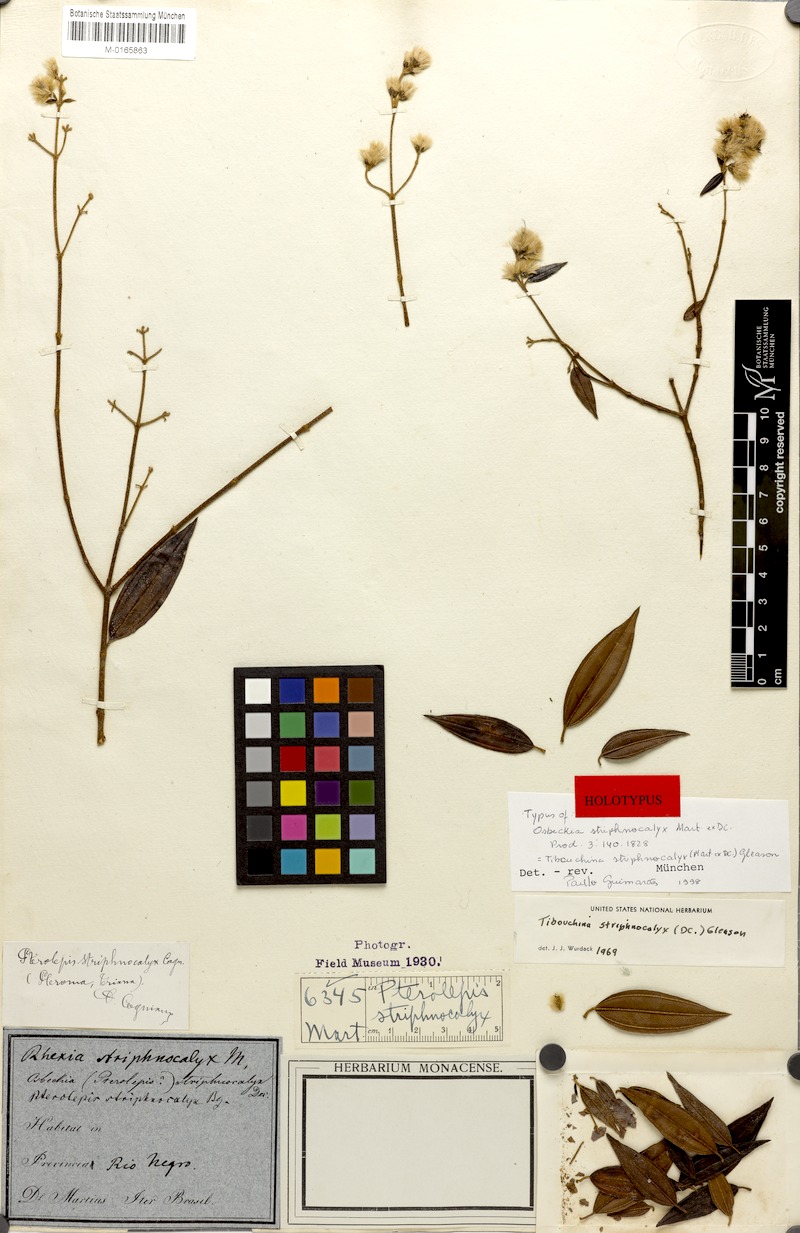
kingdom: Plantae
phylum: Tracheophyta
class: Magnoliopsida
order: Myrtales
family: Melastomataceae
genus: Chaetogastra
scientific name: Chaetogastra striphnocalyx
